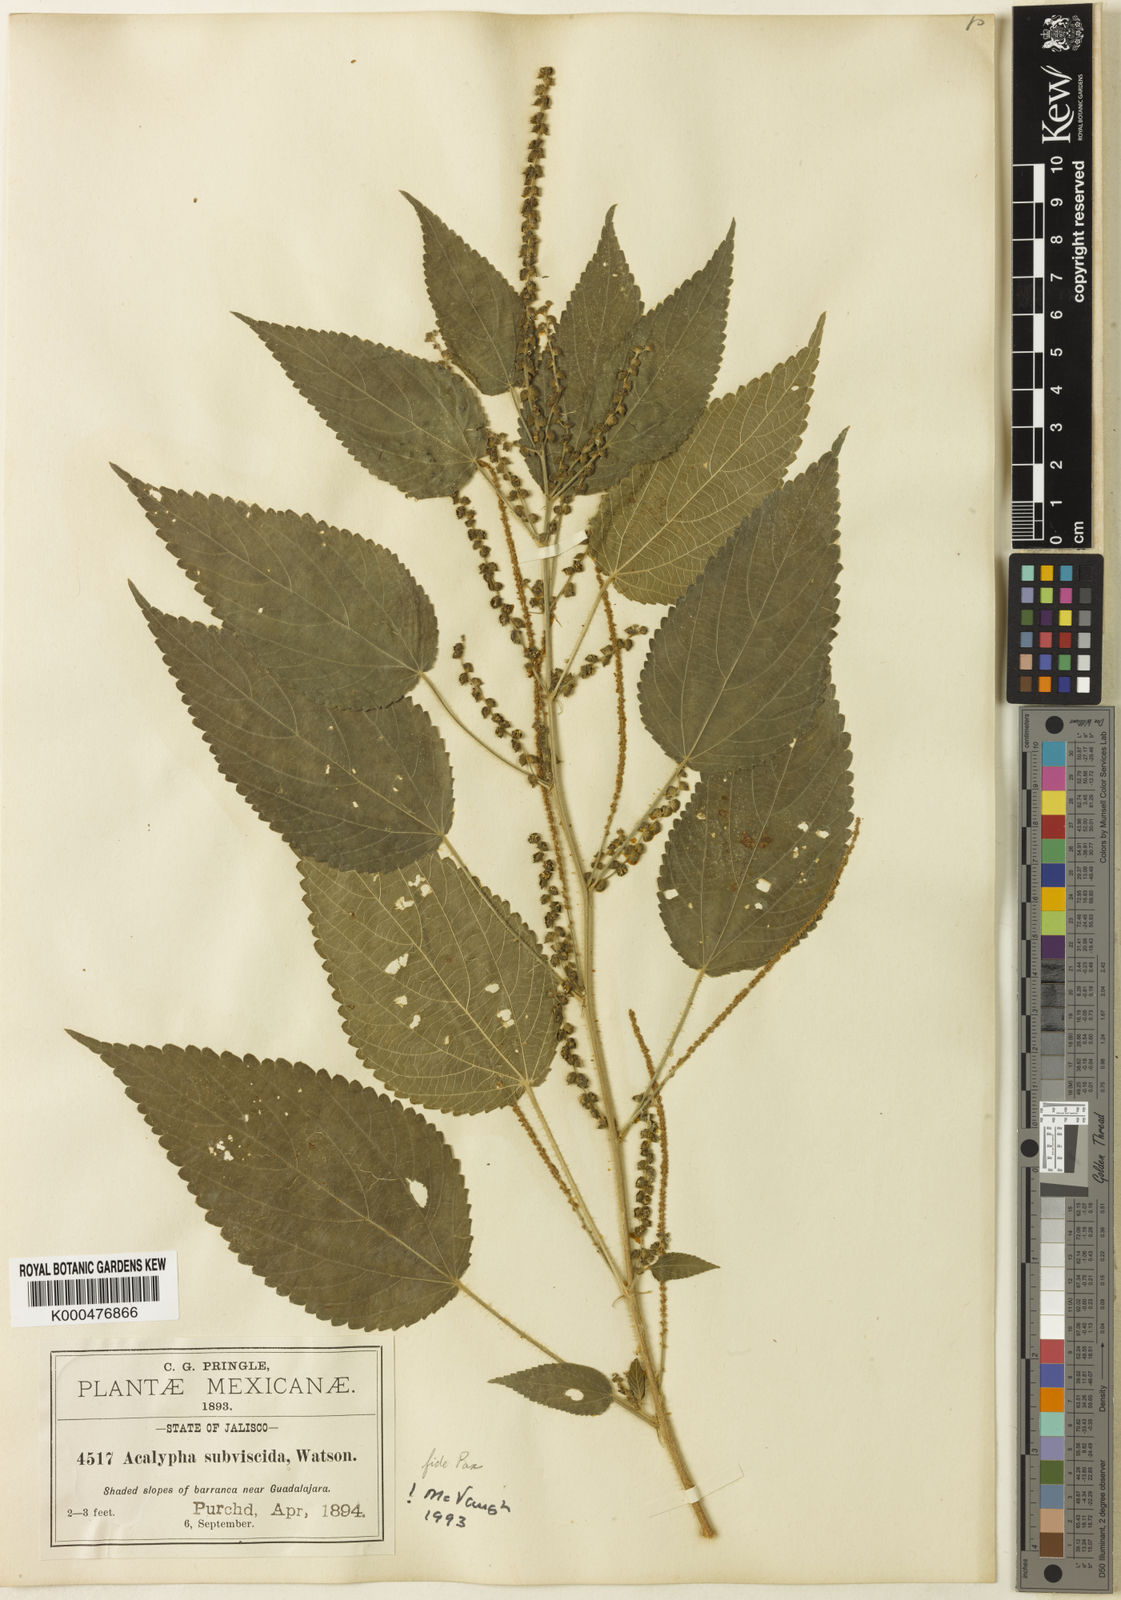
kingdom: Plantae
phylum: Tracheophyta
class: Magnoliopsida
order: Malpighiales
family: Euphorbiaceae
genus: Acalypha
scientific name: Acalypha subviscida
